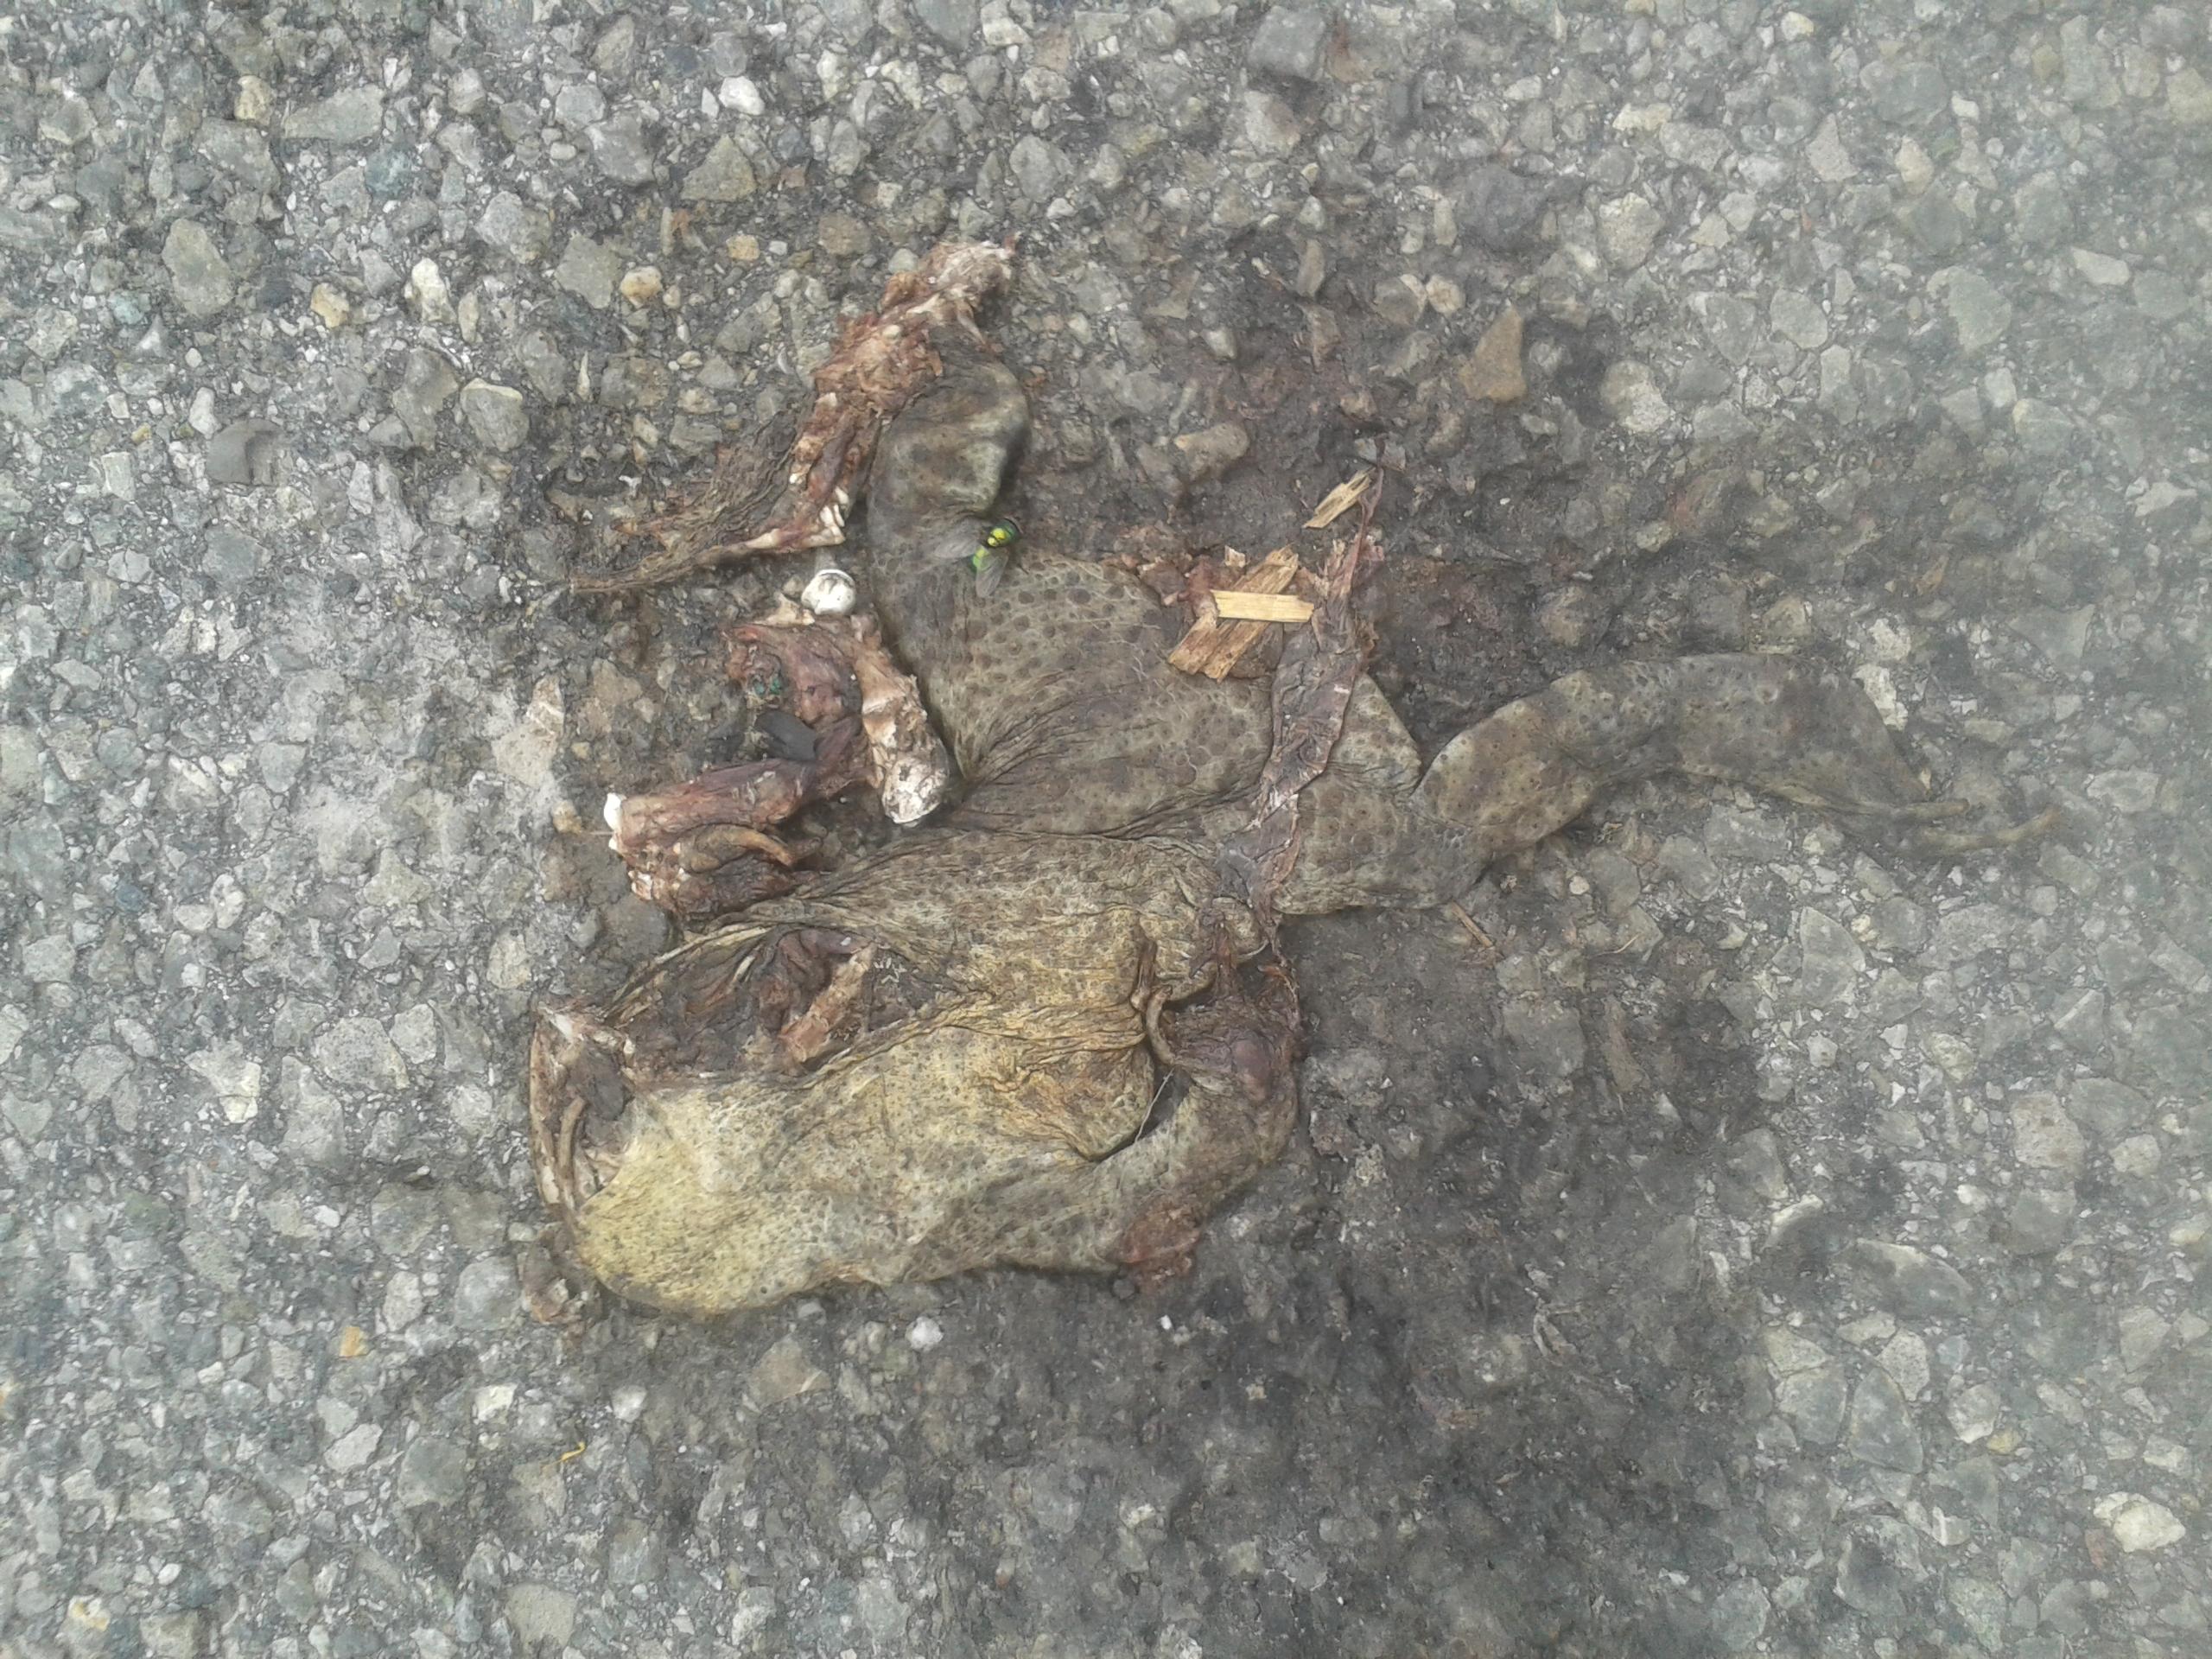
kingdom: Animalia
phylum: Chordata
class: Amphibia
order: Anura
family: Bufonidae
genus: Bufo
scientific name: Bufo bufo
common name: Common toad
